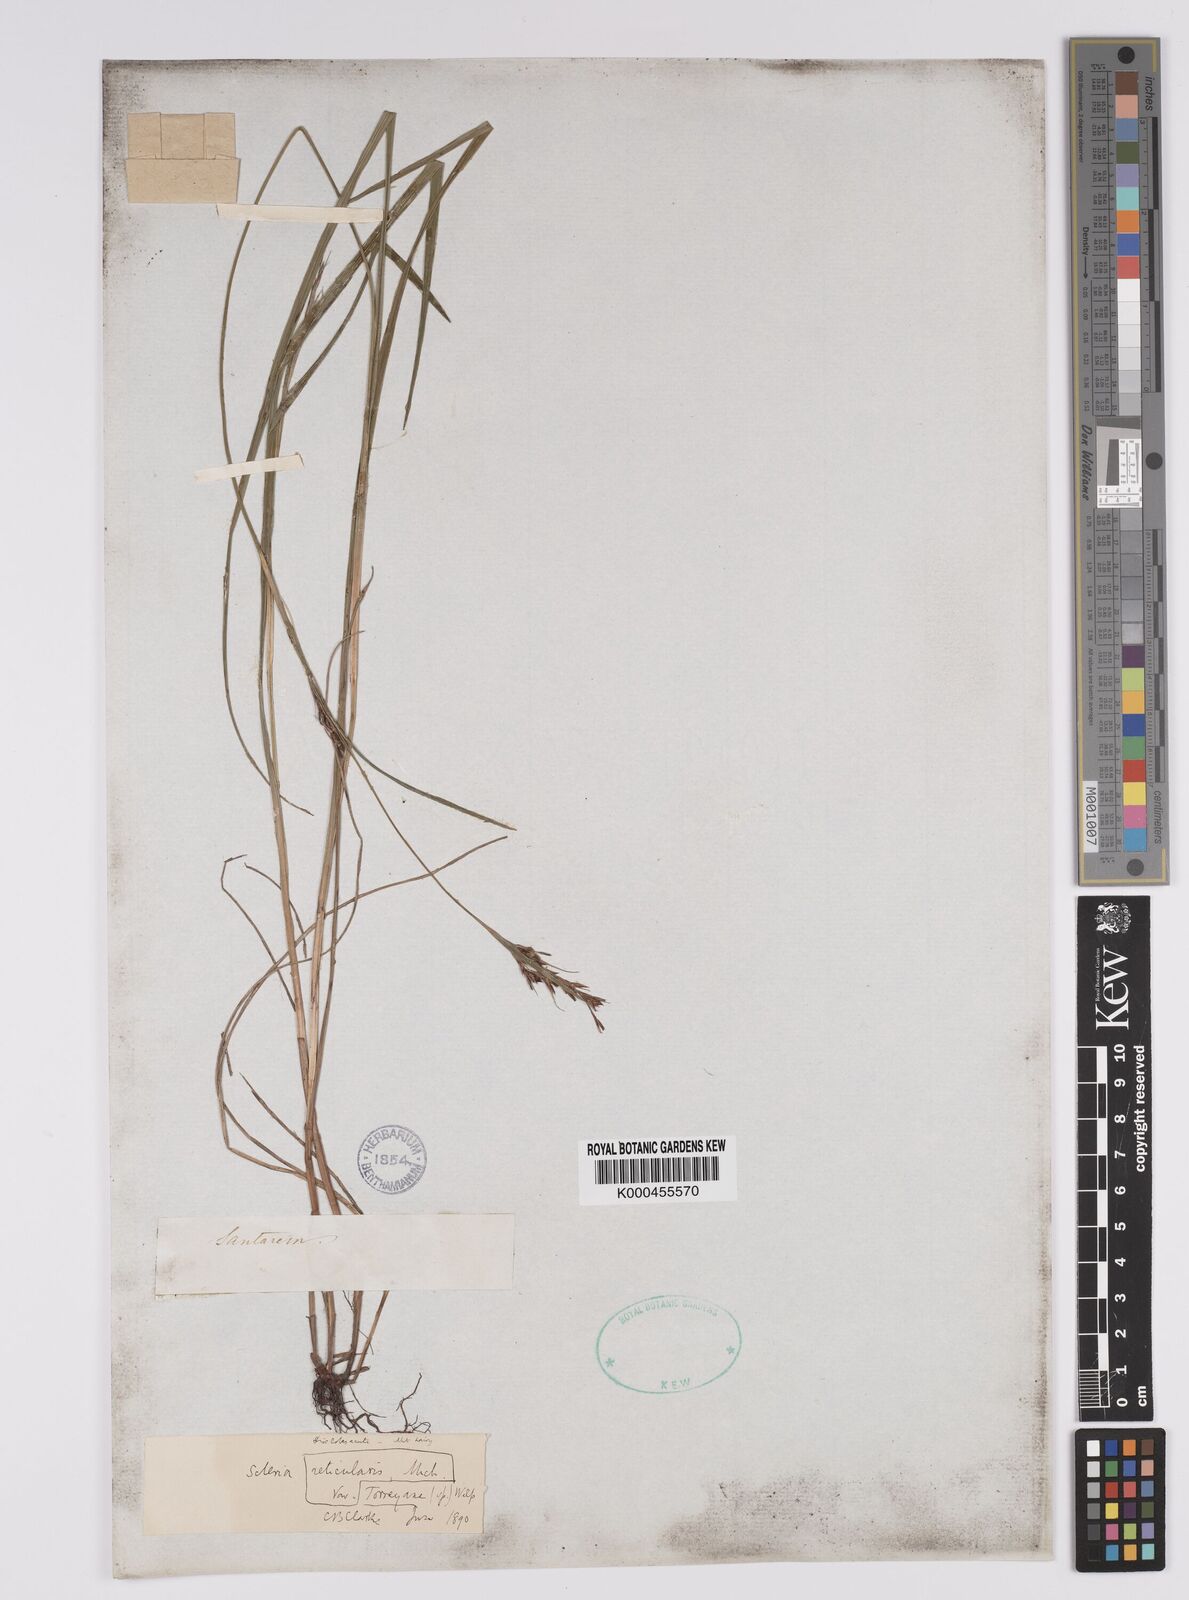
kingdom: Plantae
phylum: Tracheophyta
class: Liliopsida
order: Poales
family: Cyperaceae
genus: Scleria
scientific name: Scleria
